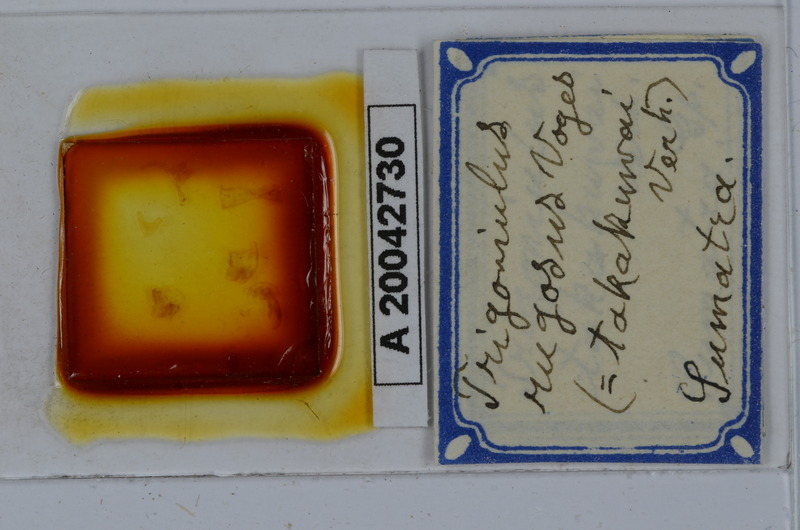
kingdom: Animalia
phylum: Arthropoda
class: Diplopoda
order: Spirobolida
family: Pachybolidae
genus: Trigoniulus
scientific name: Trigoniulus corallinus
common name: Millipede
